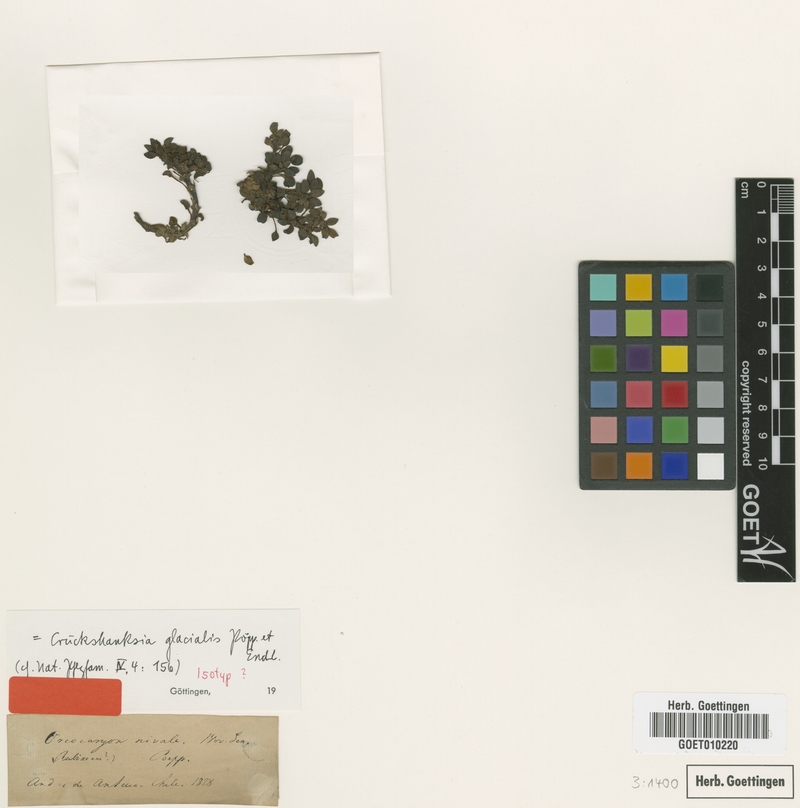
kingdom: Plantae
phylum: Tracheophyta
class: Magnoliopsida
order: Gentianales
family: Rubiaceae
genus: Oreopolus
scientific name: Oreopolus glacialis
